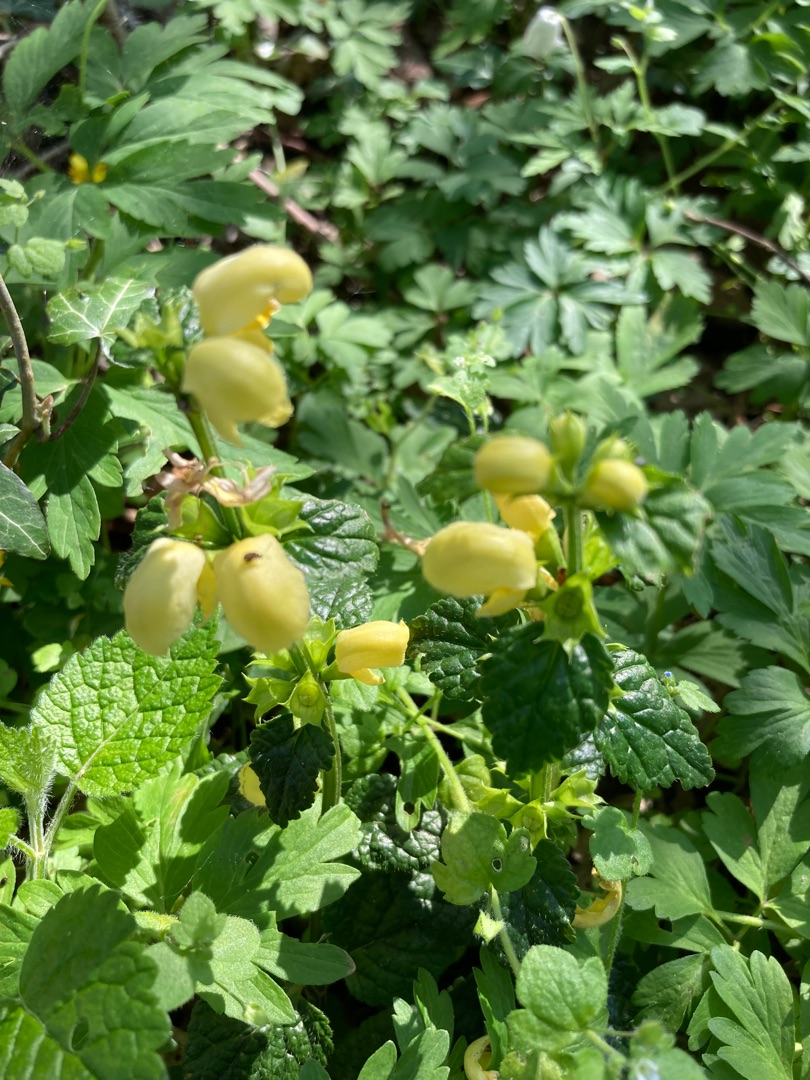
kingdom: Plantae
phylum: Tracheophyta
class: Magnoliopsida
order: Lamiales
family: Lamiaceae
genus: Lamium
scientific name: Lamium galeobdolon
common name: Guldnælde
